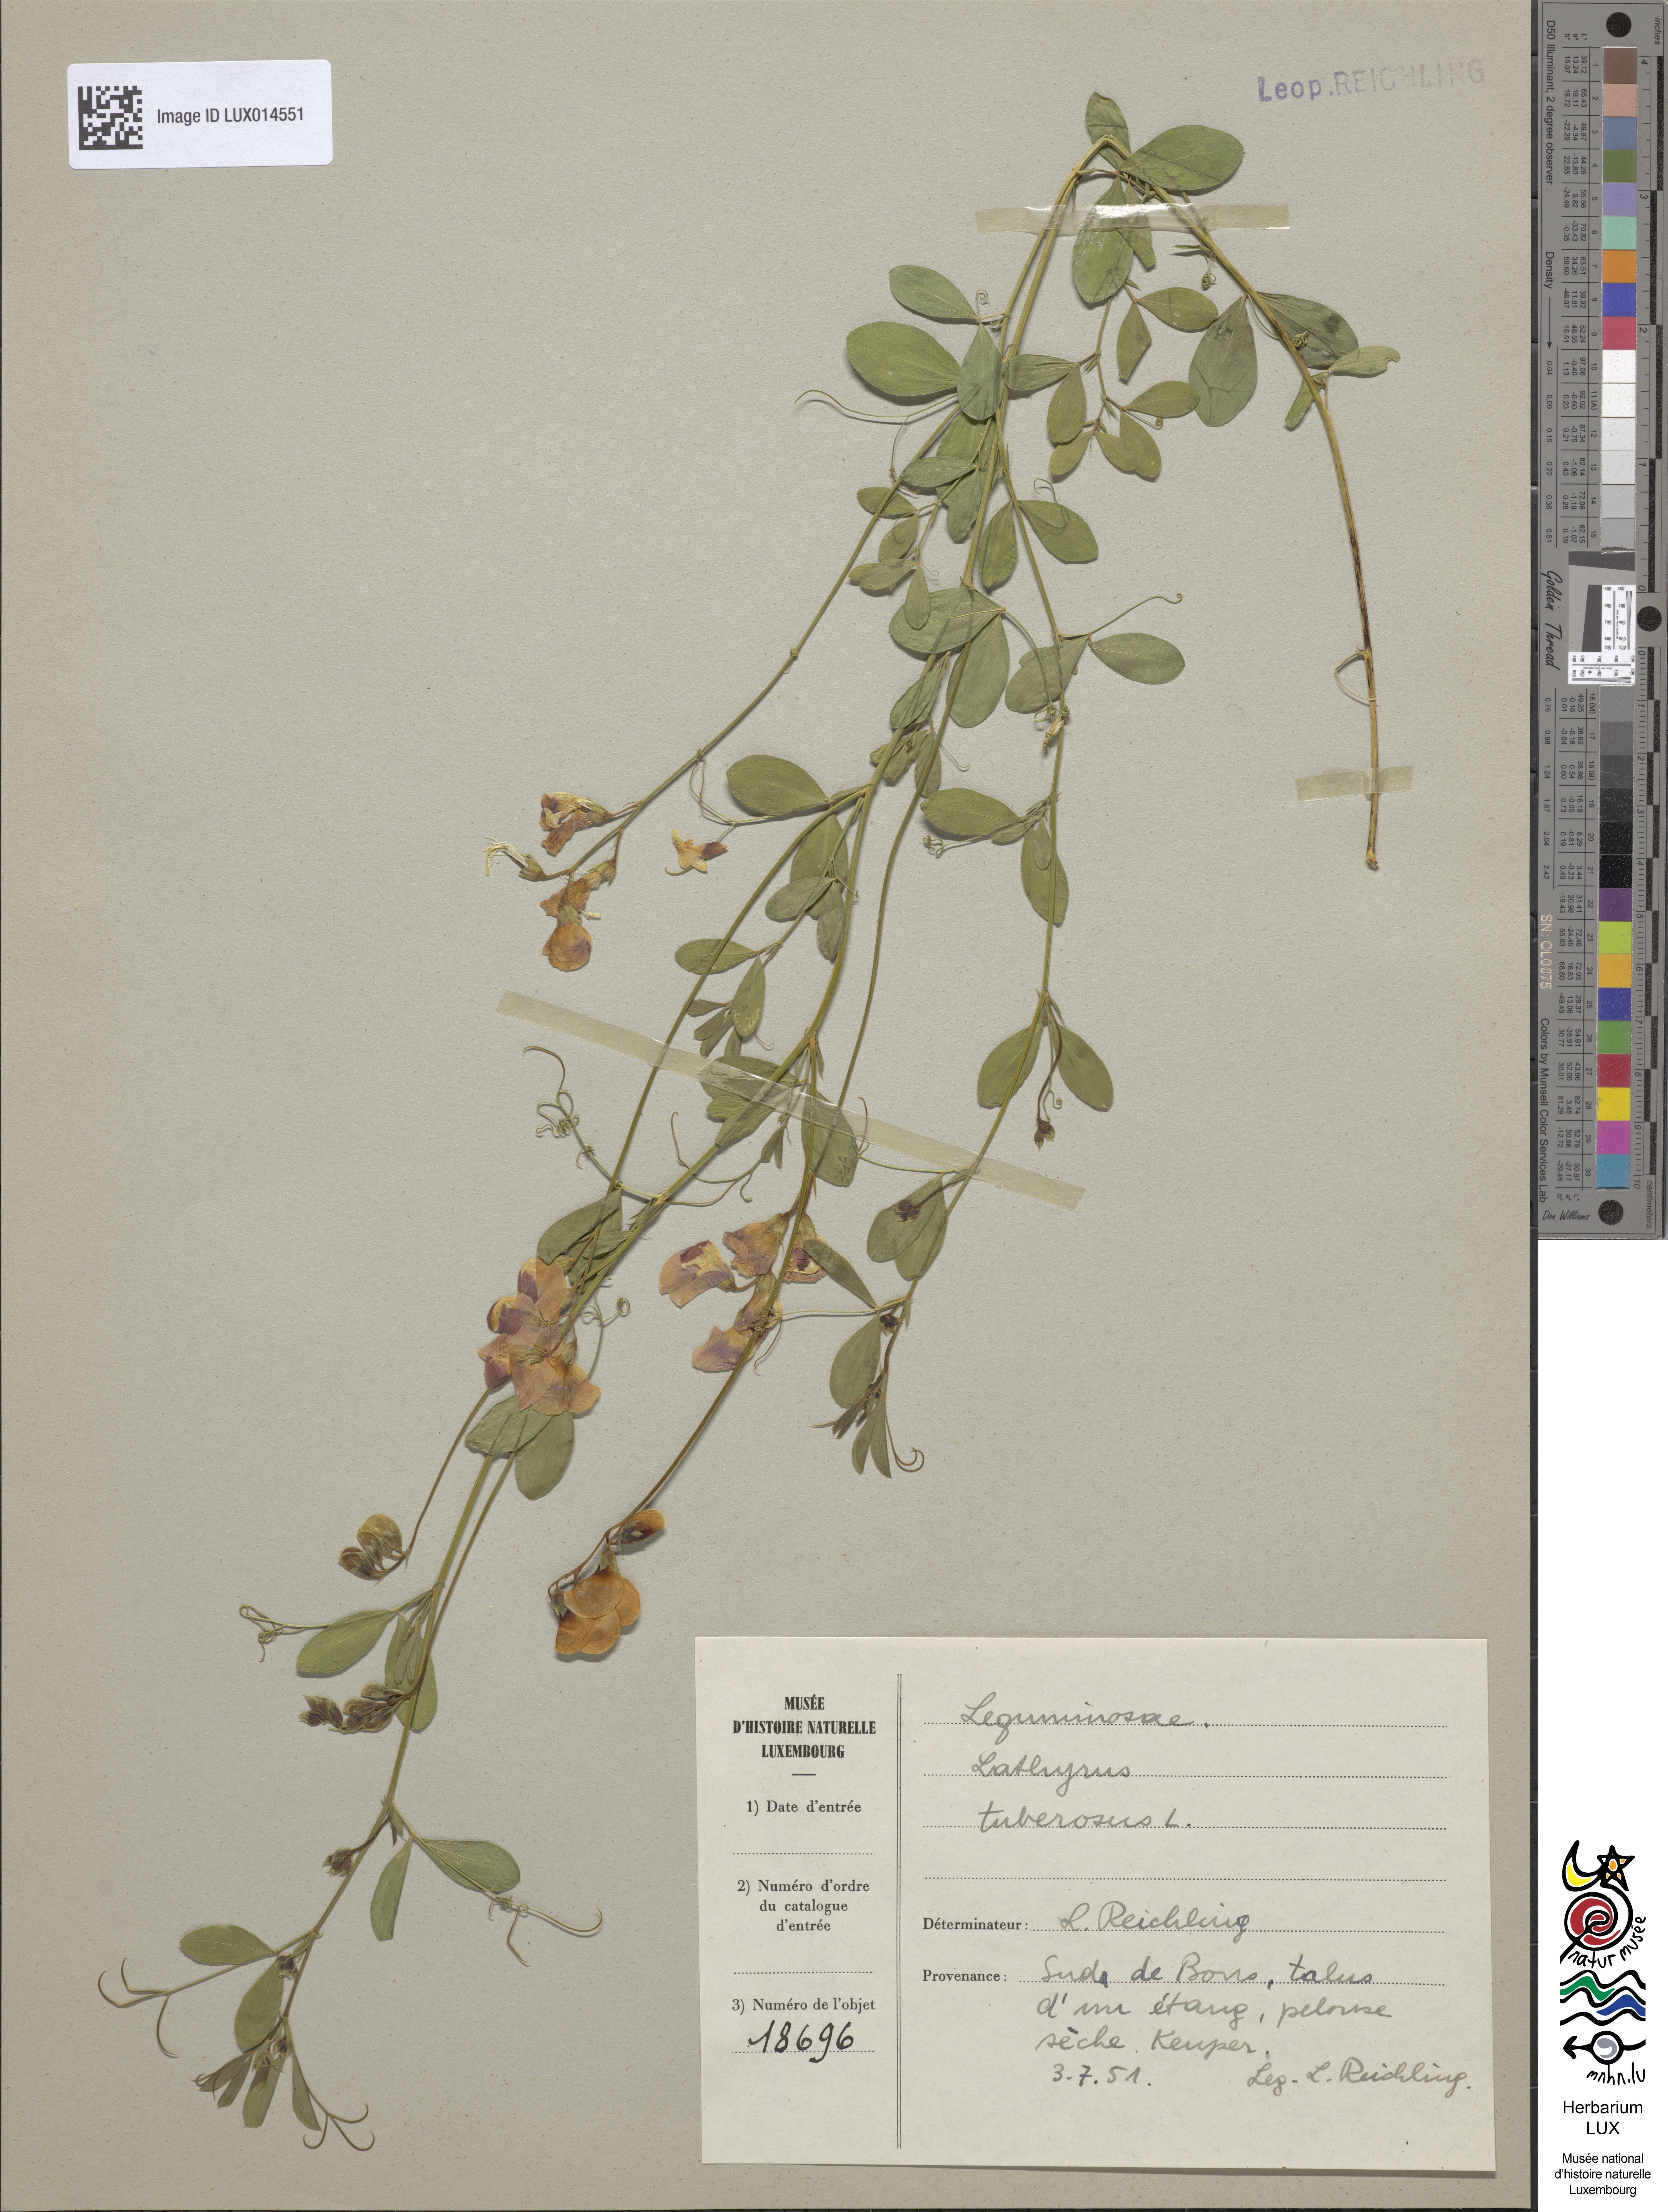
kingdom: Plantae
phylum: Tracheophyta
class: Magnoliopsida
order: Fabales
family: Fabaceae
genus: Lathyrus
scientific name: Lathyrus tuberosus
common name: Tuberous pea
